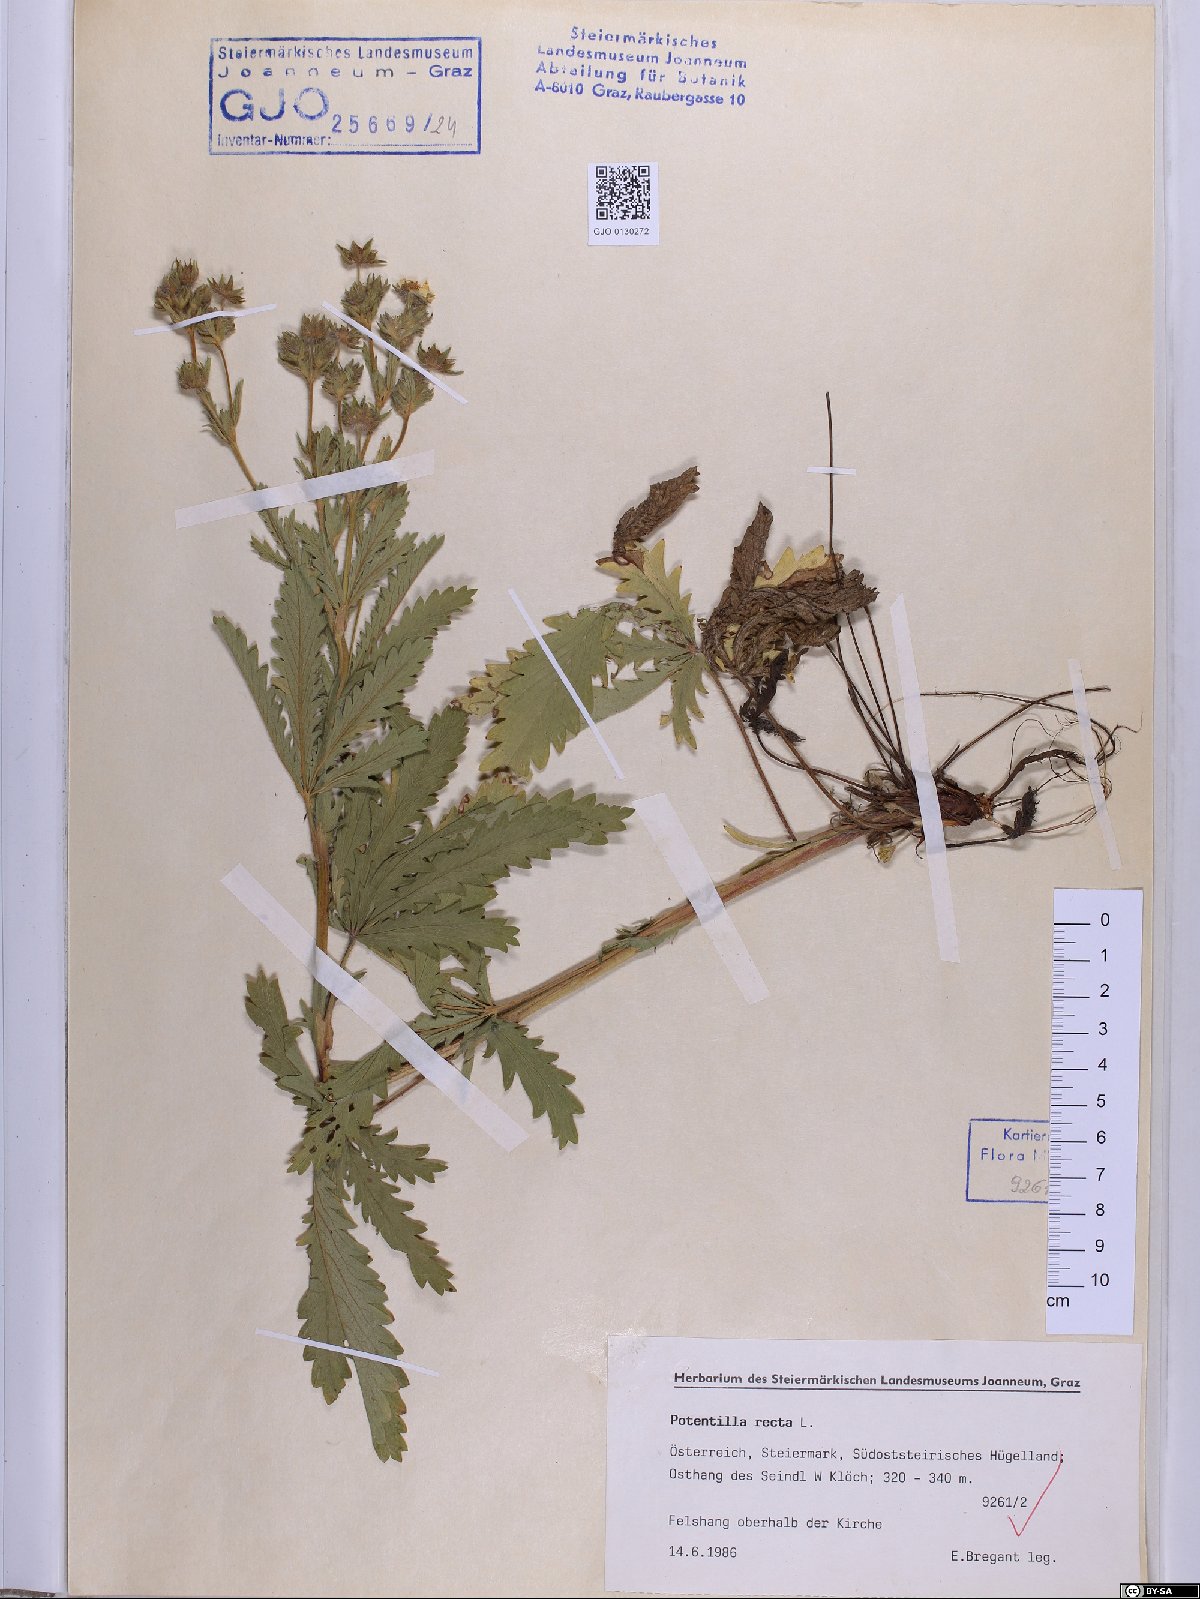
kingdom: Plantae
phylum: Tracheophyta
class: Magnoliopsida
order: Rosales
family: Rosaceae
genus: Potentilla
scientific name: Potentilla recta
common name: Sulphur cinquefoil
